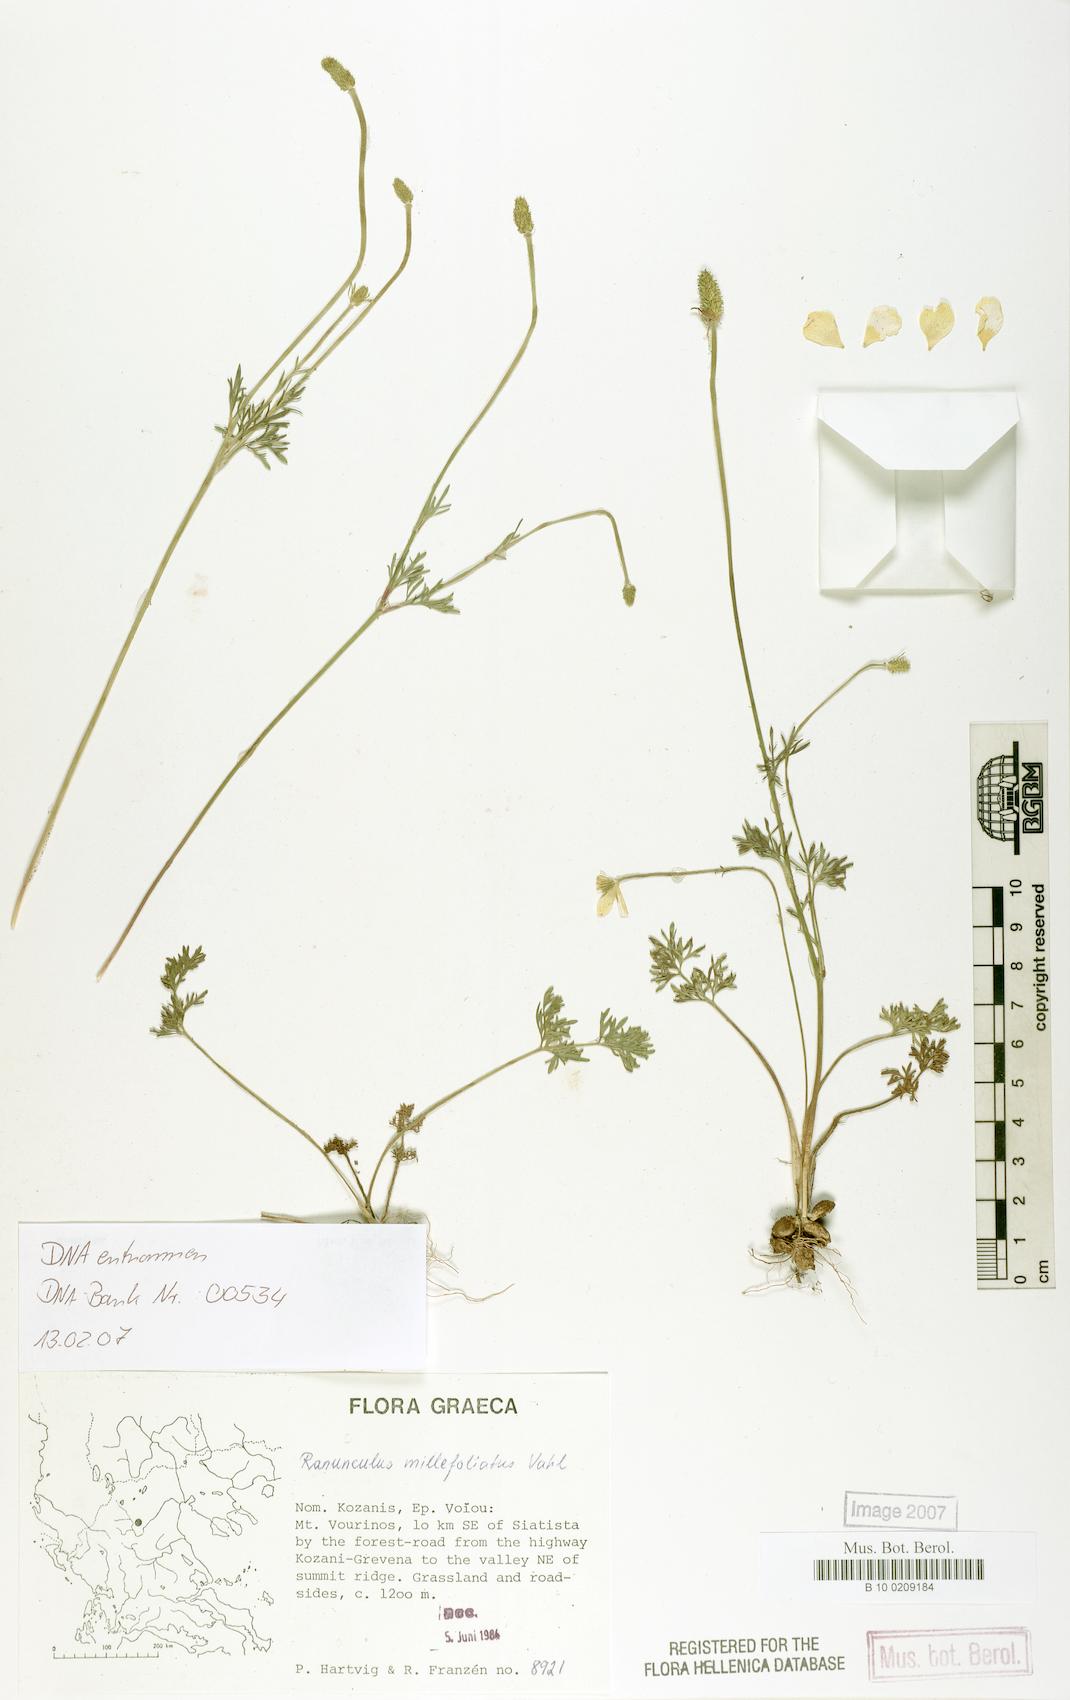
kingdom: Plantae
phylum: Tracheophyta
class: Magnoliopsida
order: Ranunculales
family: Ranunculaceae
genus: Ranunculus
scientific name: Ranunculus millefoliatus
